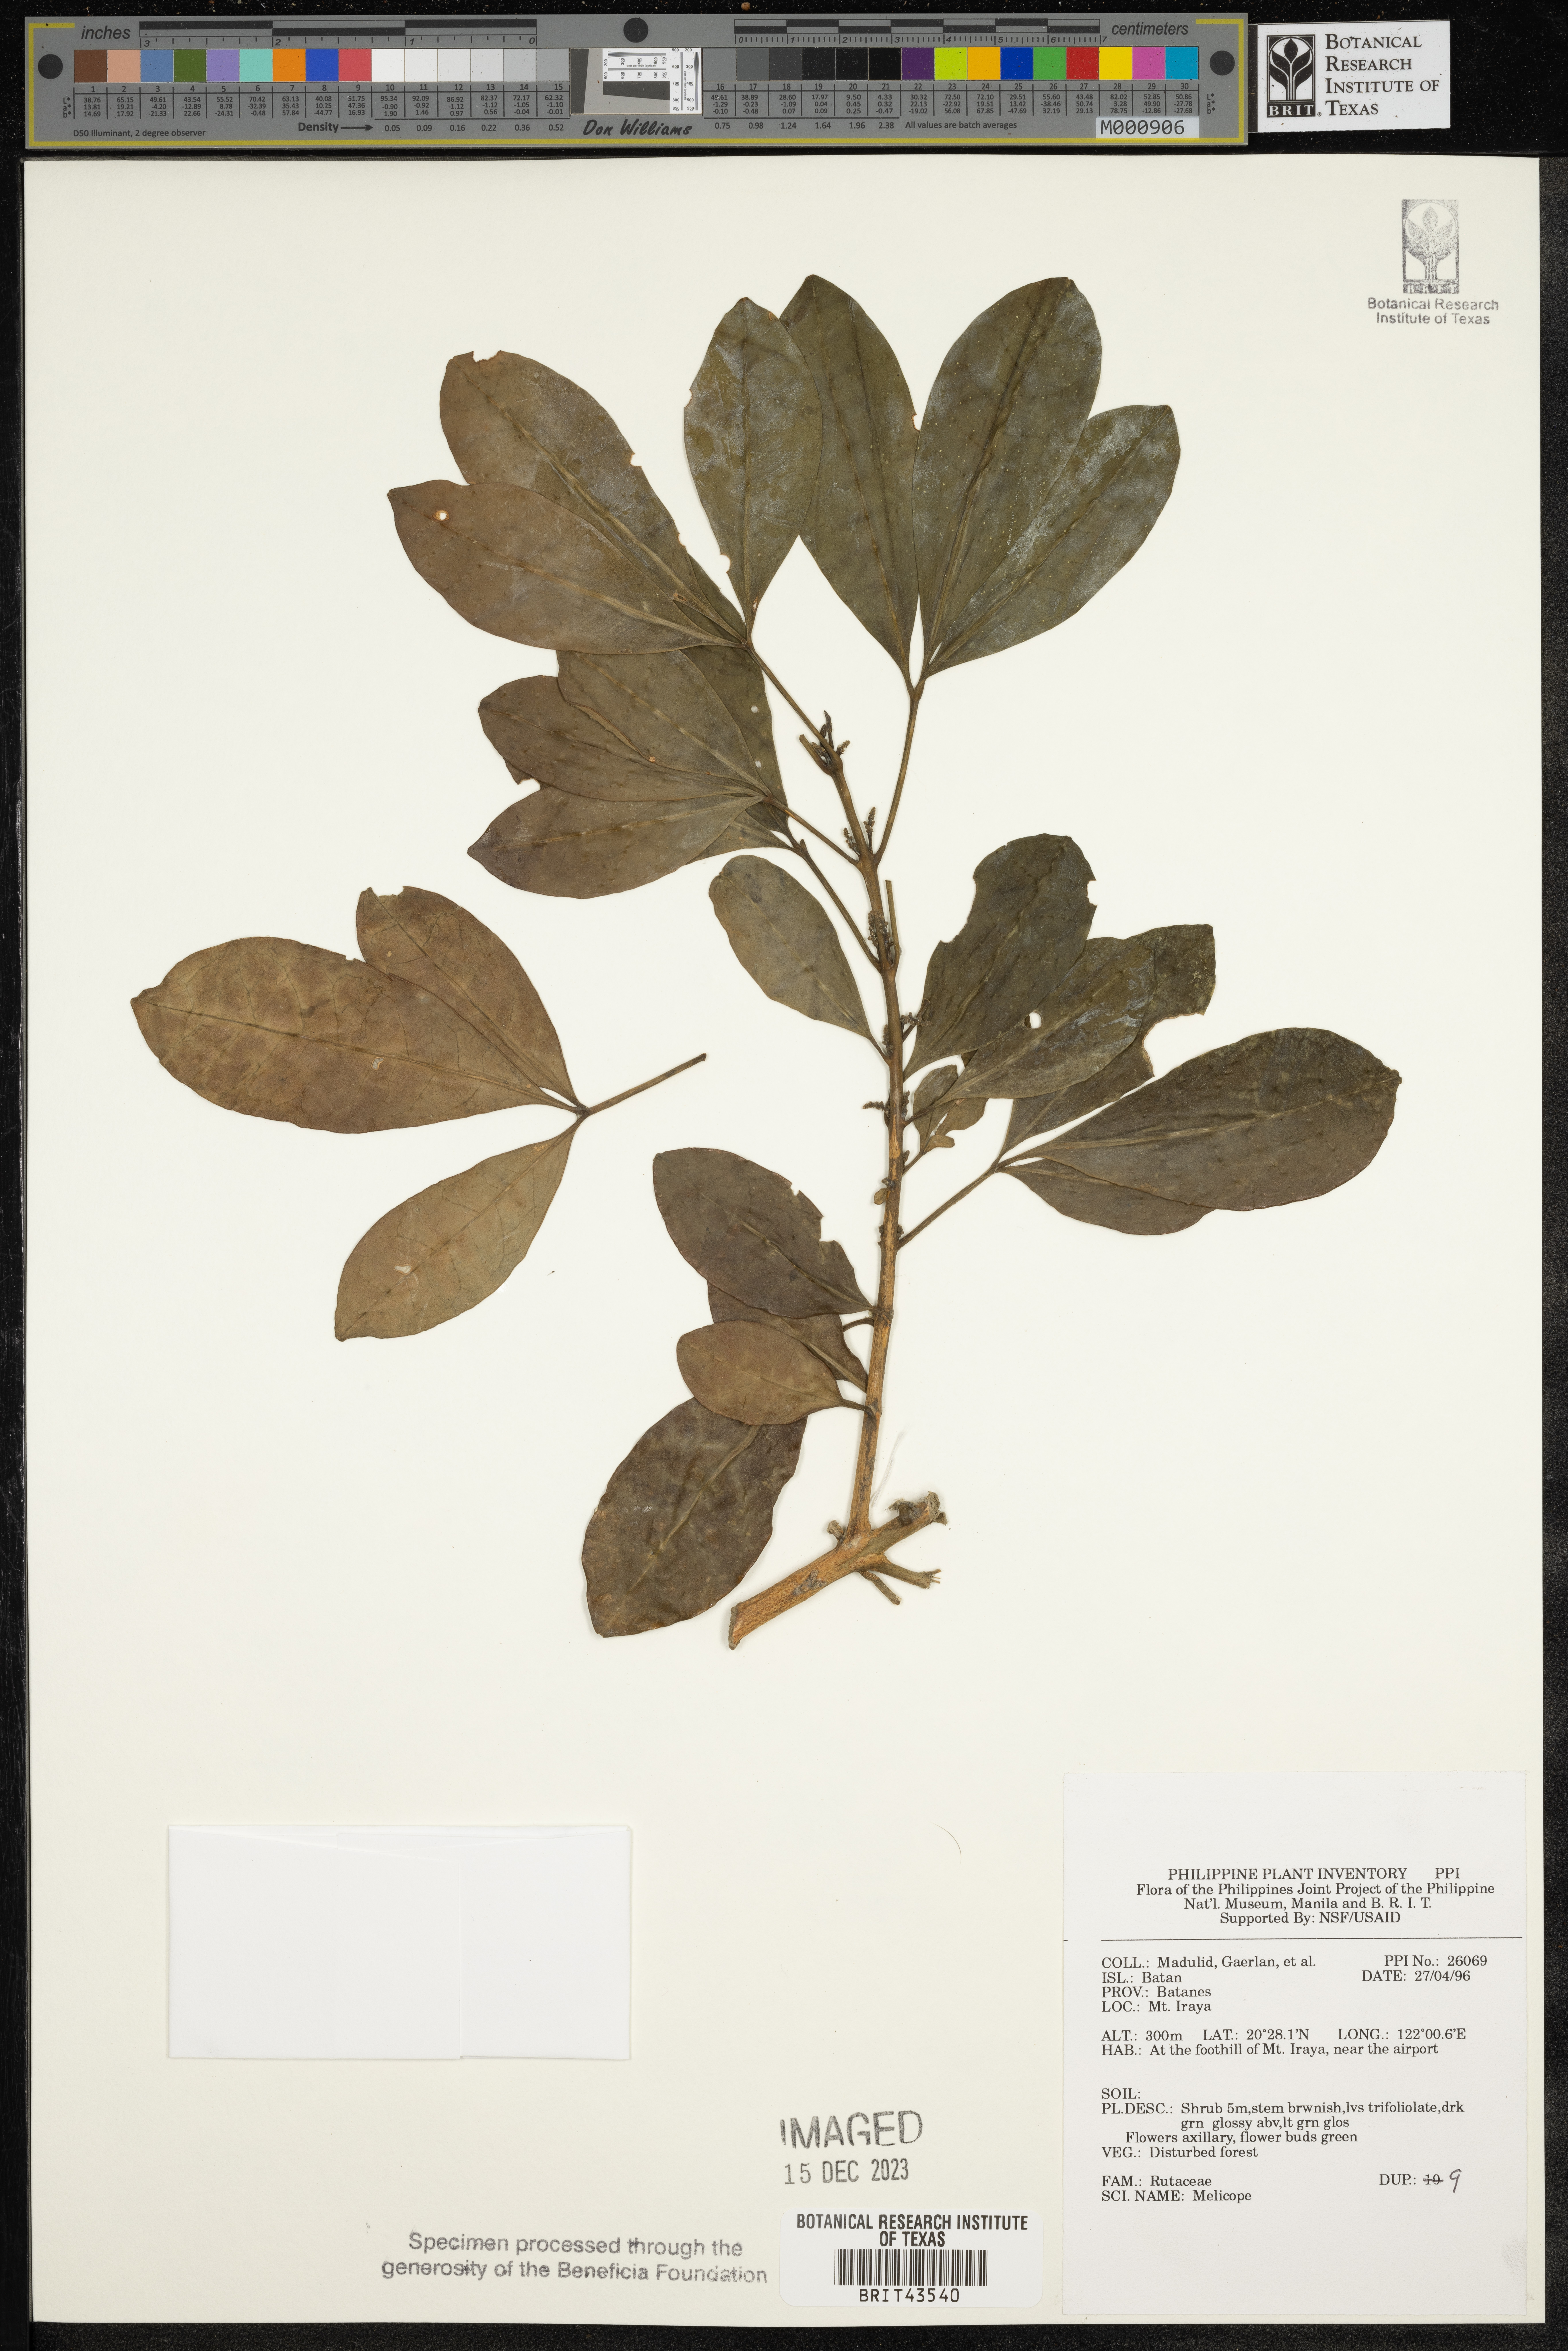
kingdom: Plantae
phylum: Tracheophyta
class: Magnoliopsida
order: Sapindales
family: Rutaceae
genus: Melicope
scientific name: Melicope
